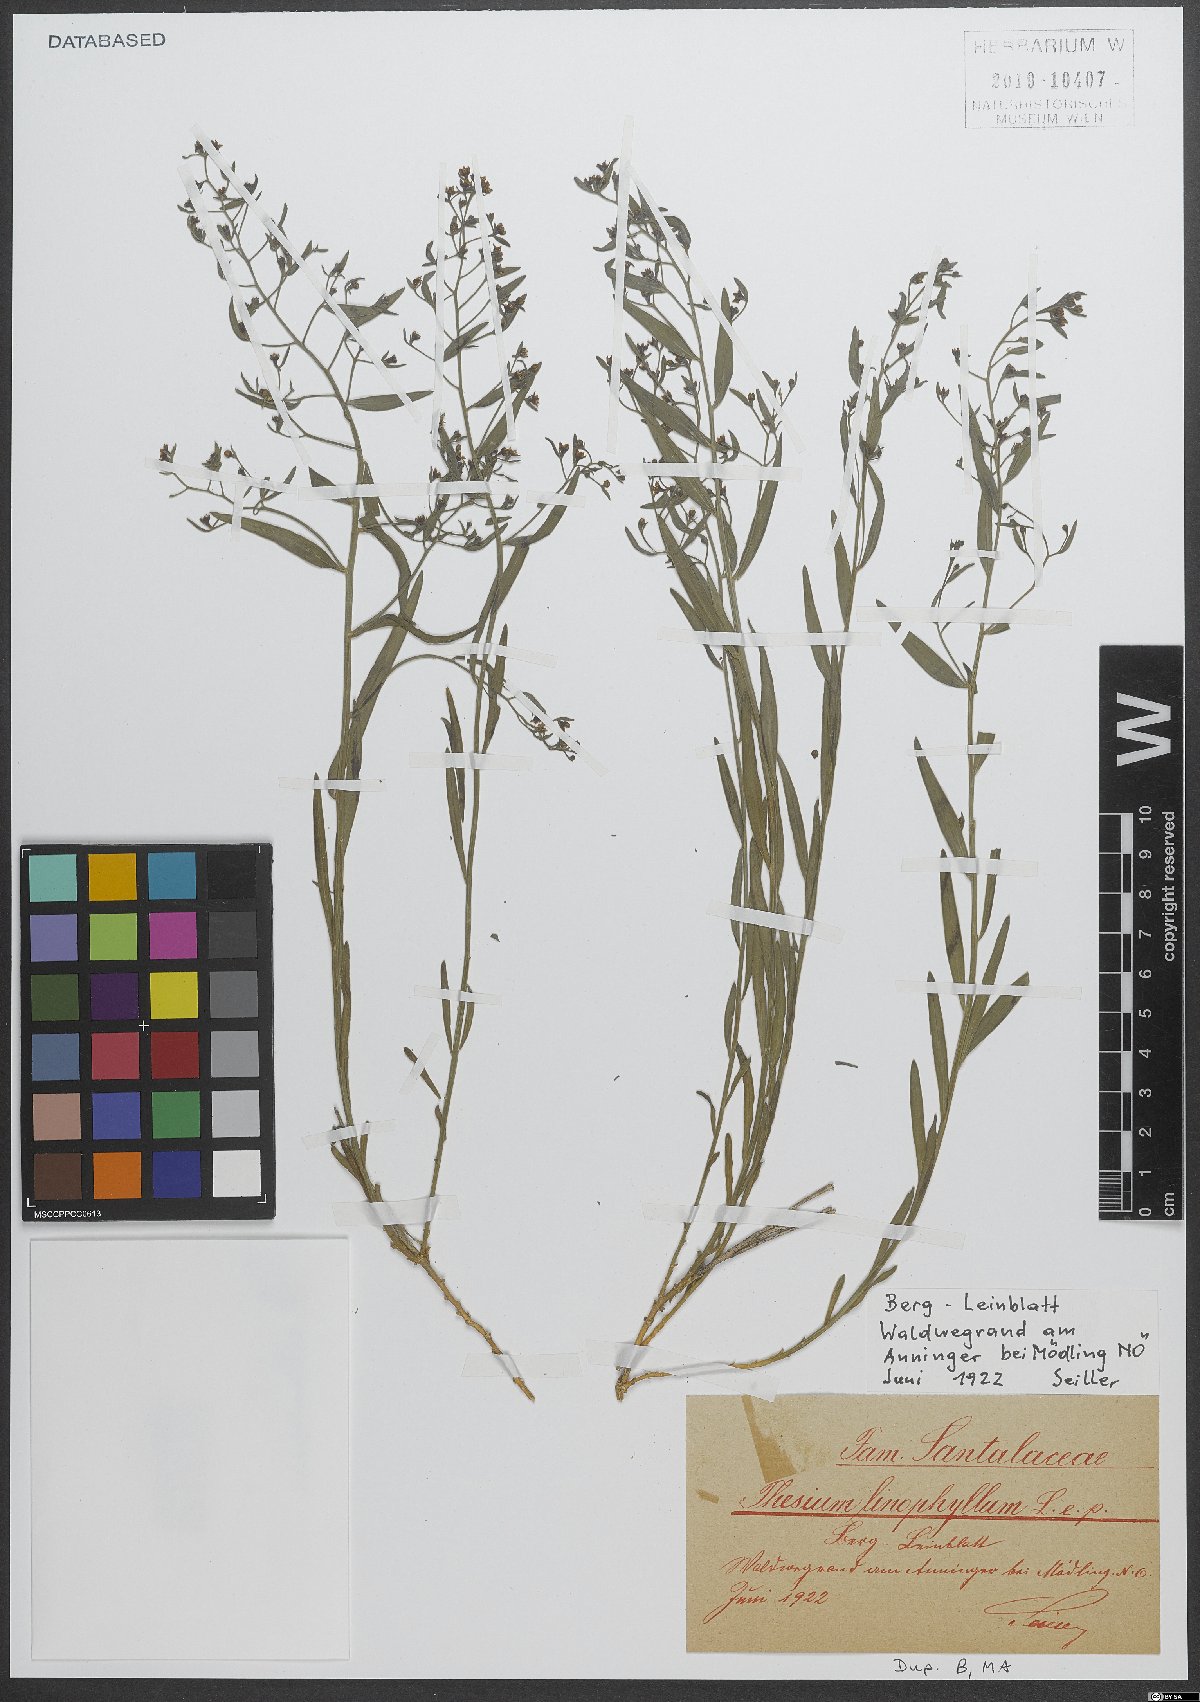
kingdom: Plantae
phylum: Tracheophyta
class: Magnoliopsida
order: Santalales
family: Thesiaceae
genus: Thesium
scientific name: Thesium linophyllon
